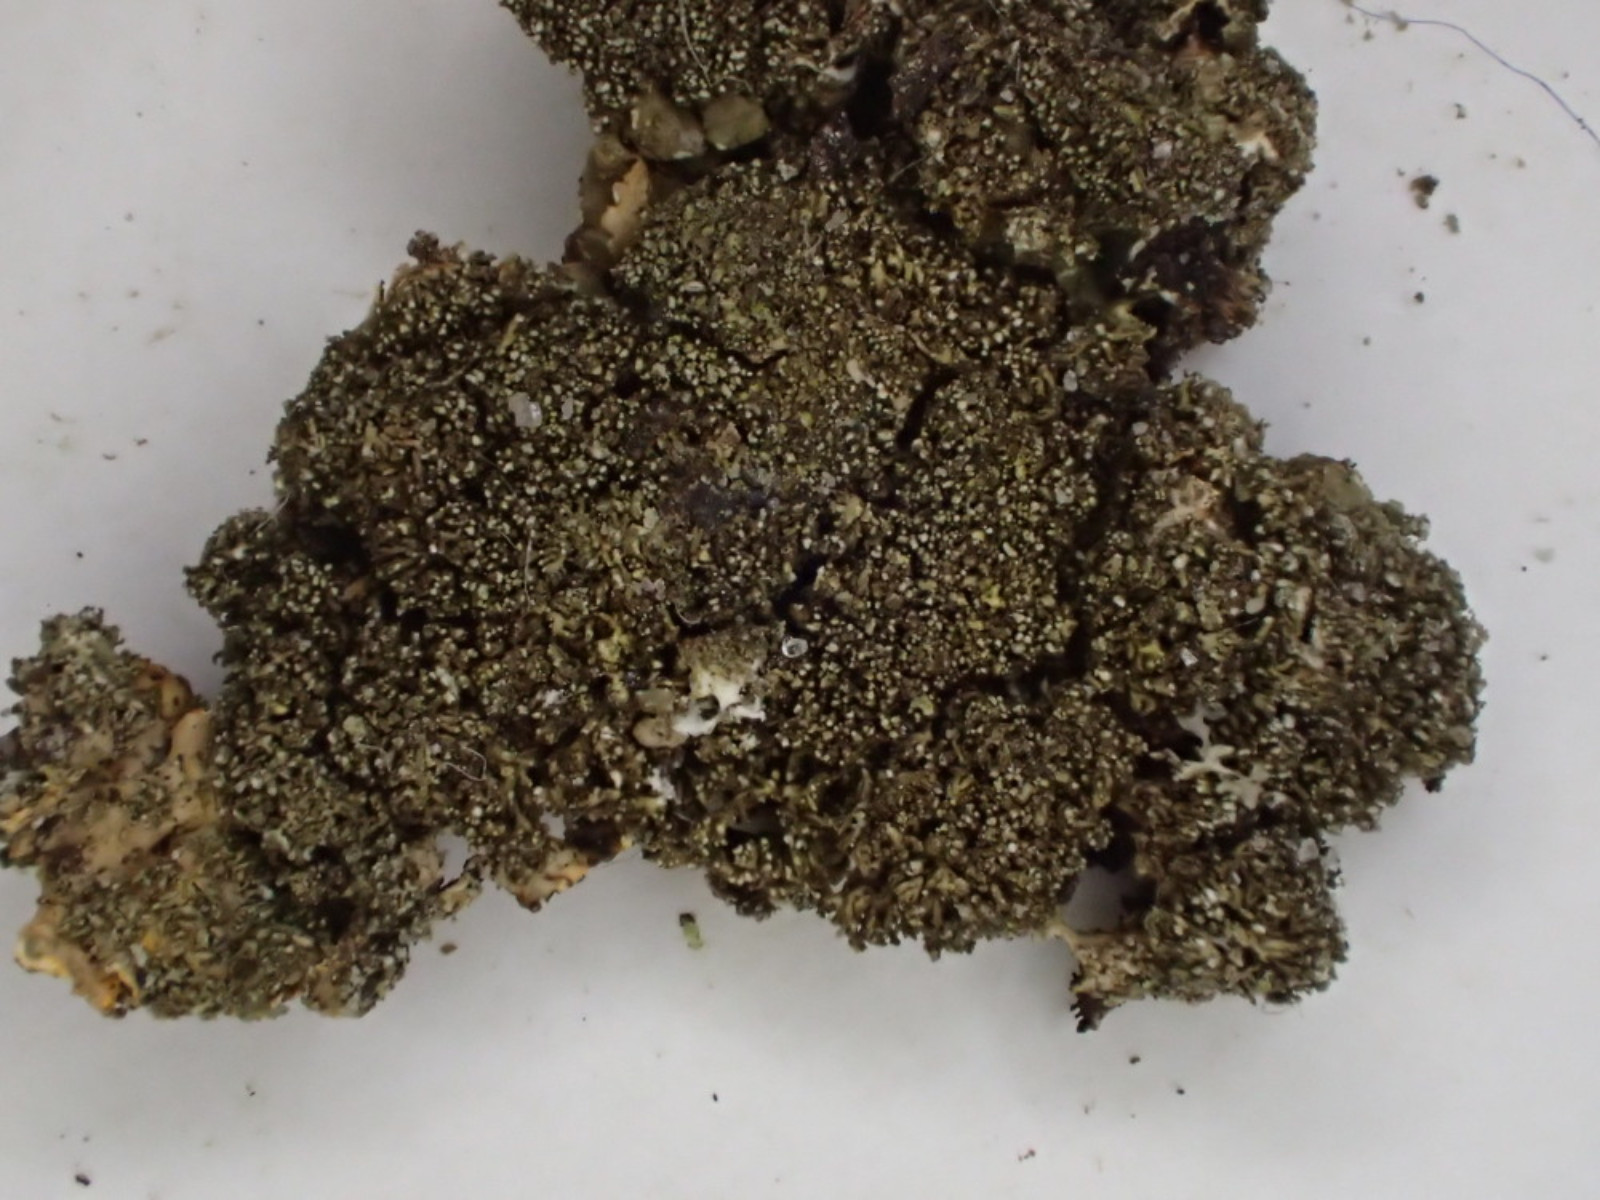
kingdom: Fungi
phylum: Ascomycota
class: Lecanoromycetes
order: Lecanorales
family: Parmeliaceae
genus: Melanelixia
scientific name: Melanelixia glabratula
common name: glinsende skållav
